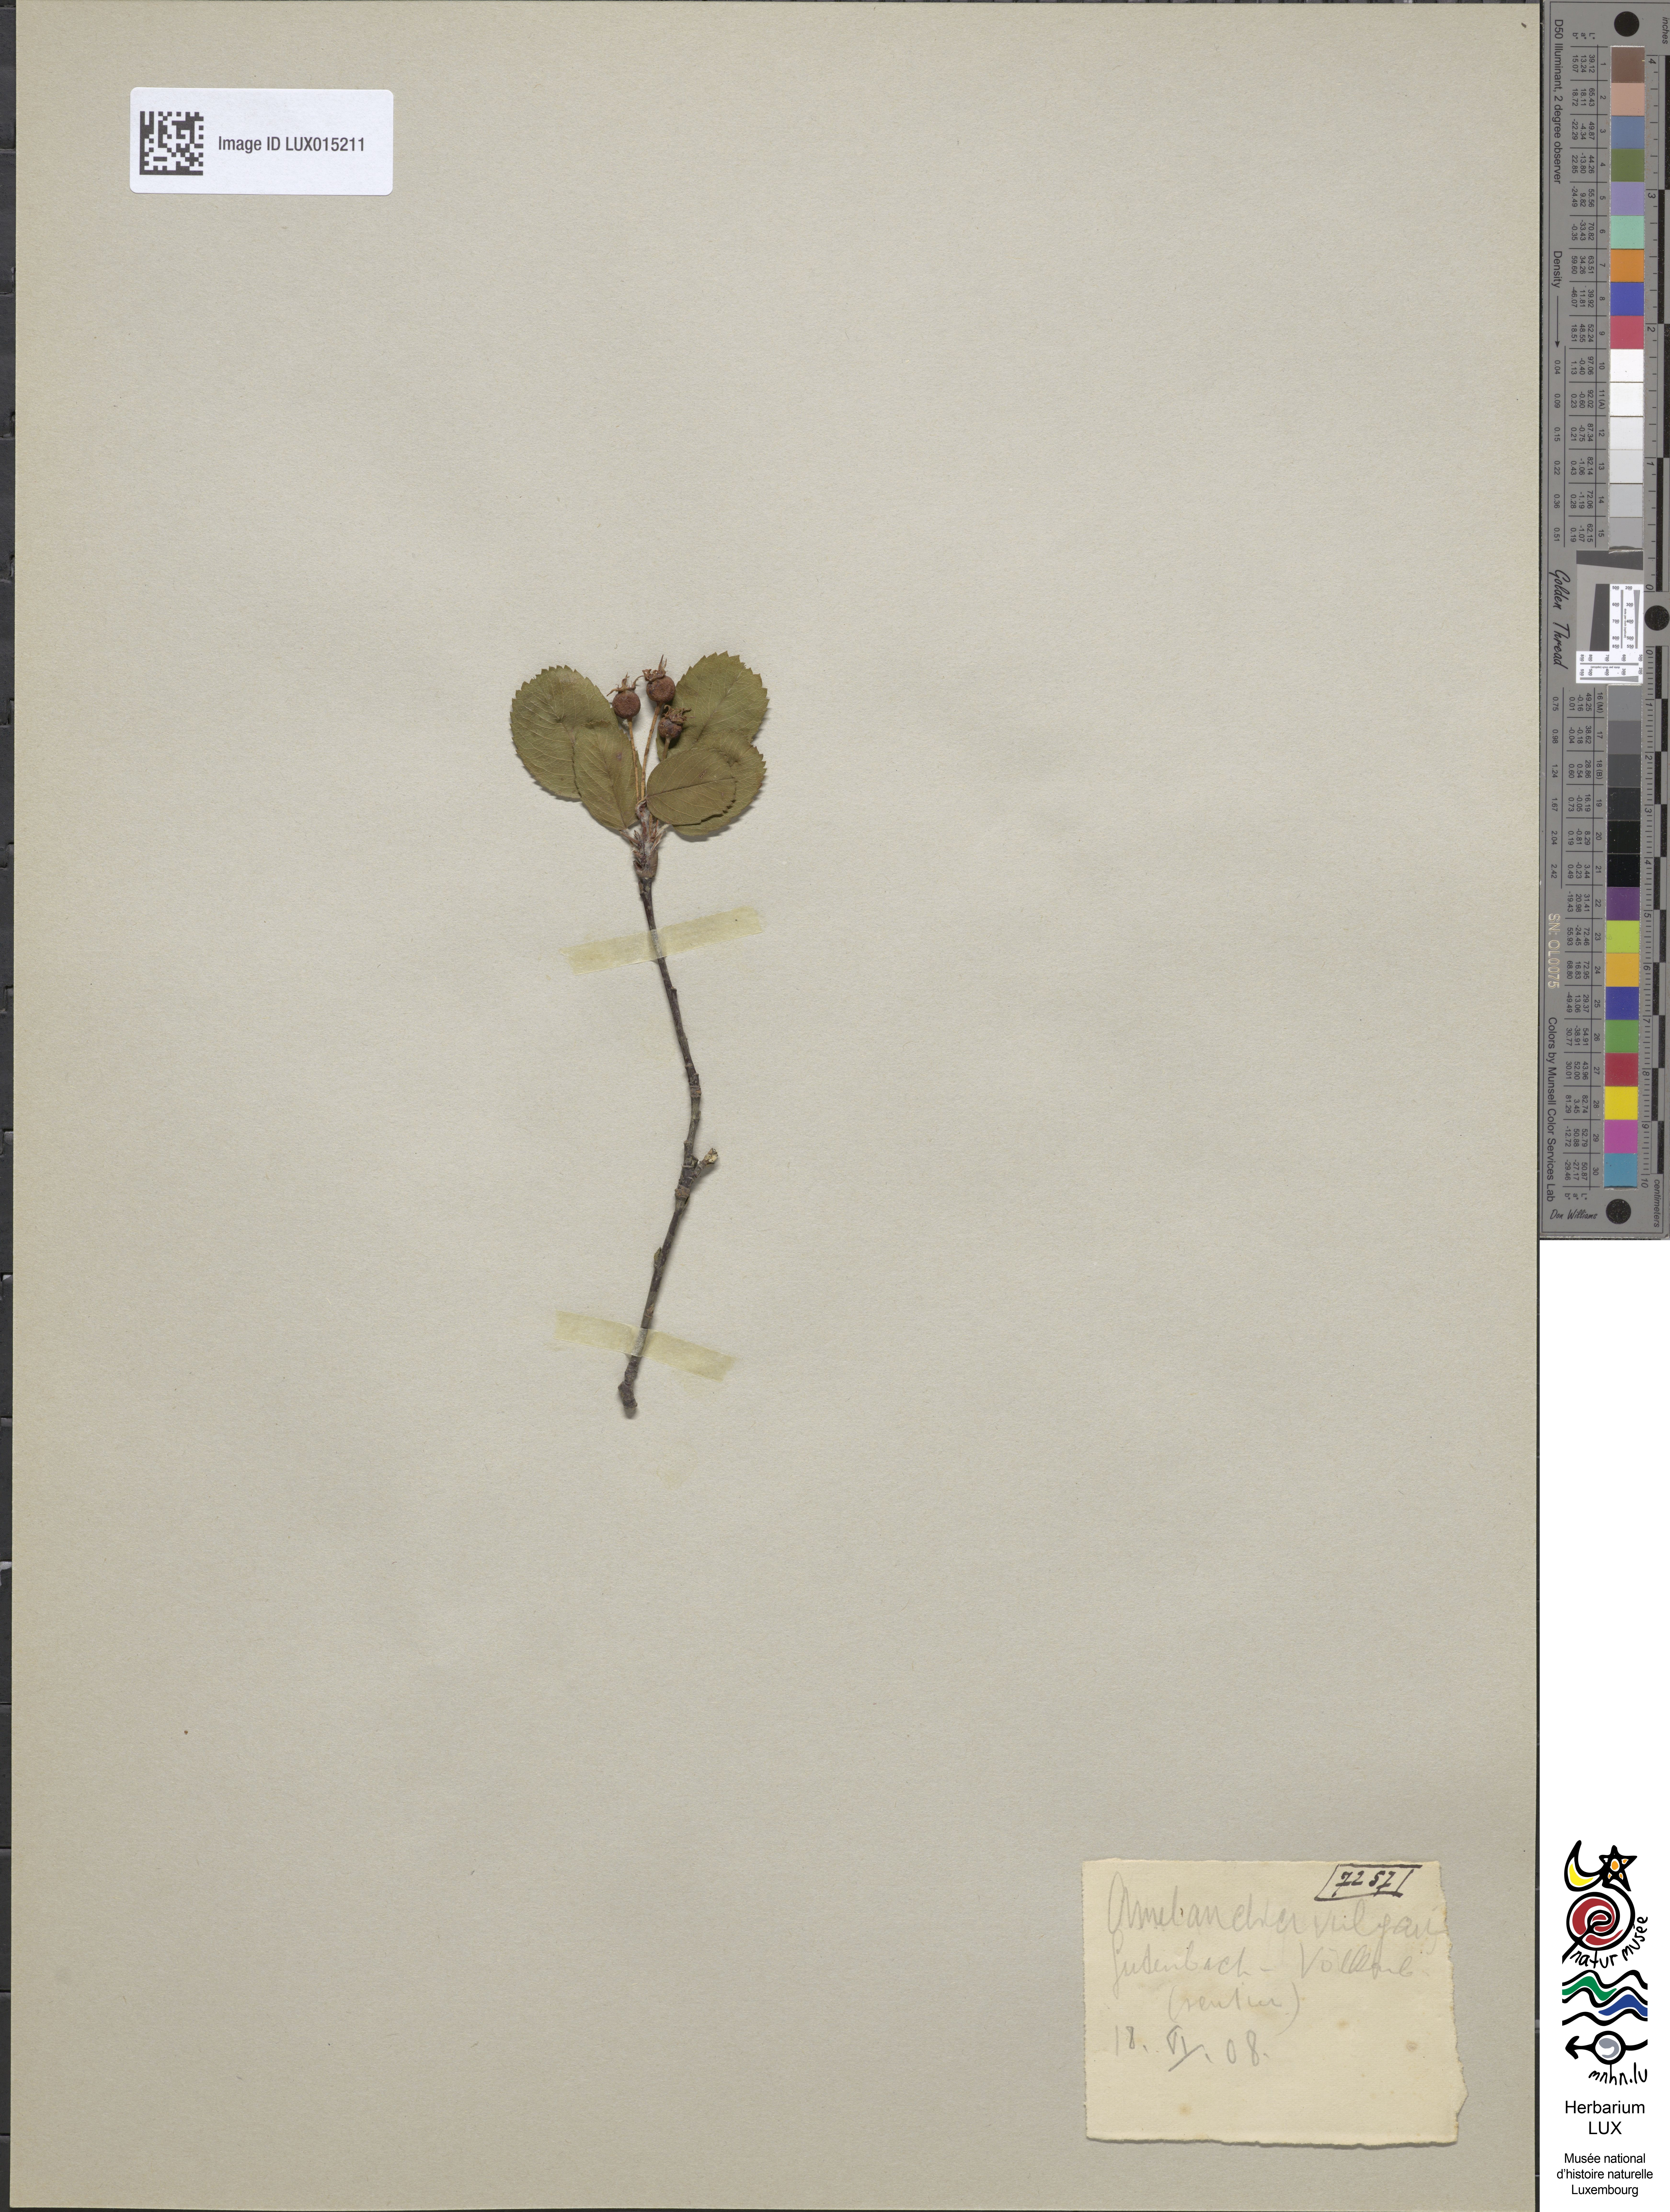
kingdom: Plantae
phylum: Tracheophyta
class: Magnoliopsida
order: Rosales
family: Rosaceae
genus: Amelanchier
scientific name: Amelanchier ovalis
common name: Serviceberry
